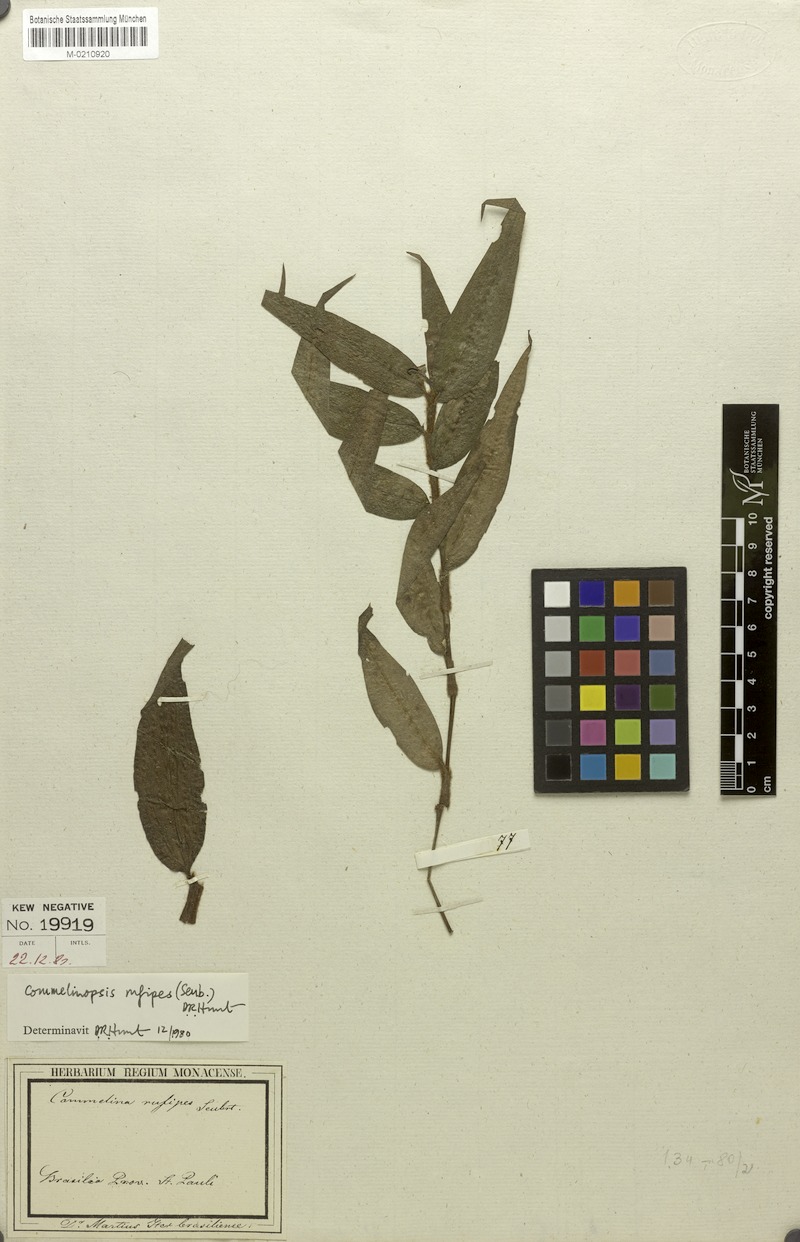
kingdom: Plantae
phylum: Tracheophyta
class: Liliopsida
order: Commelinales
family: Commelinaceae
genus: Commelina
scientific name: Commelina rufipes
